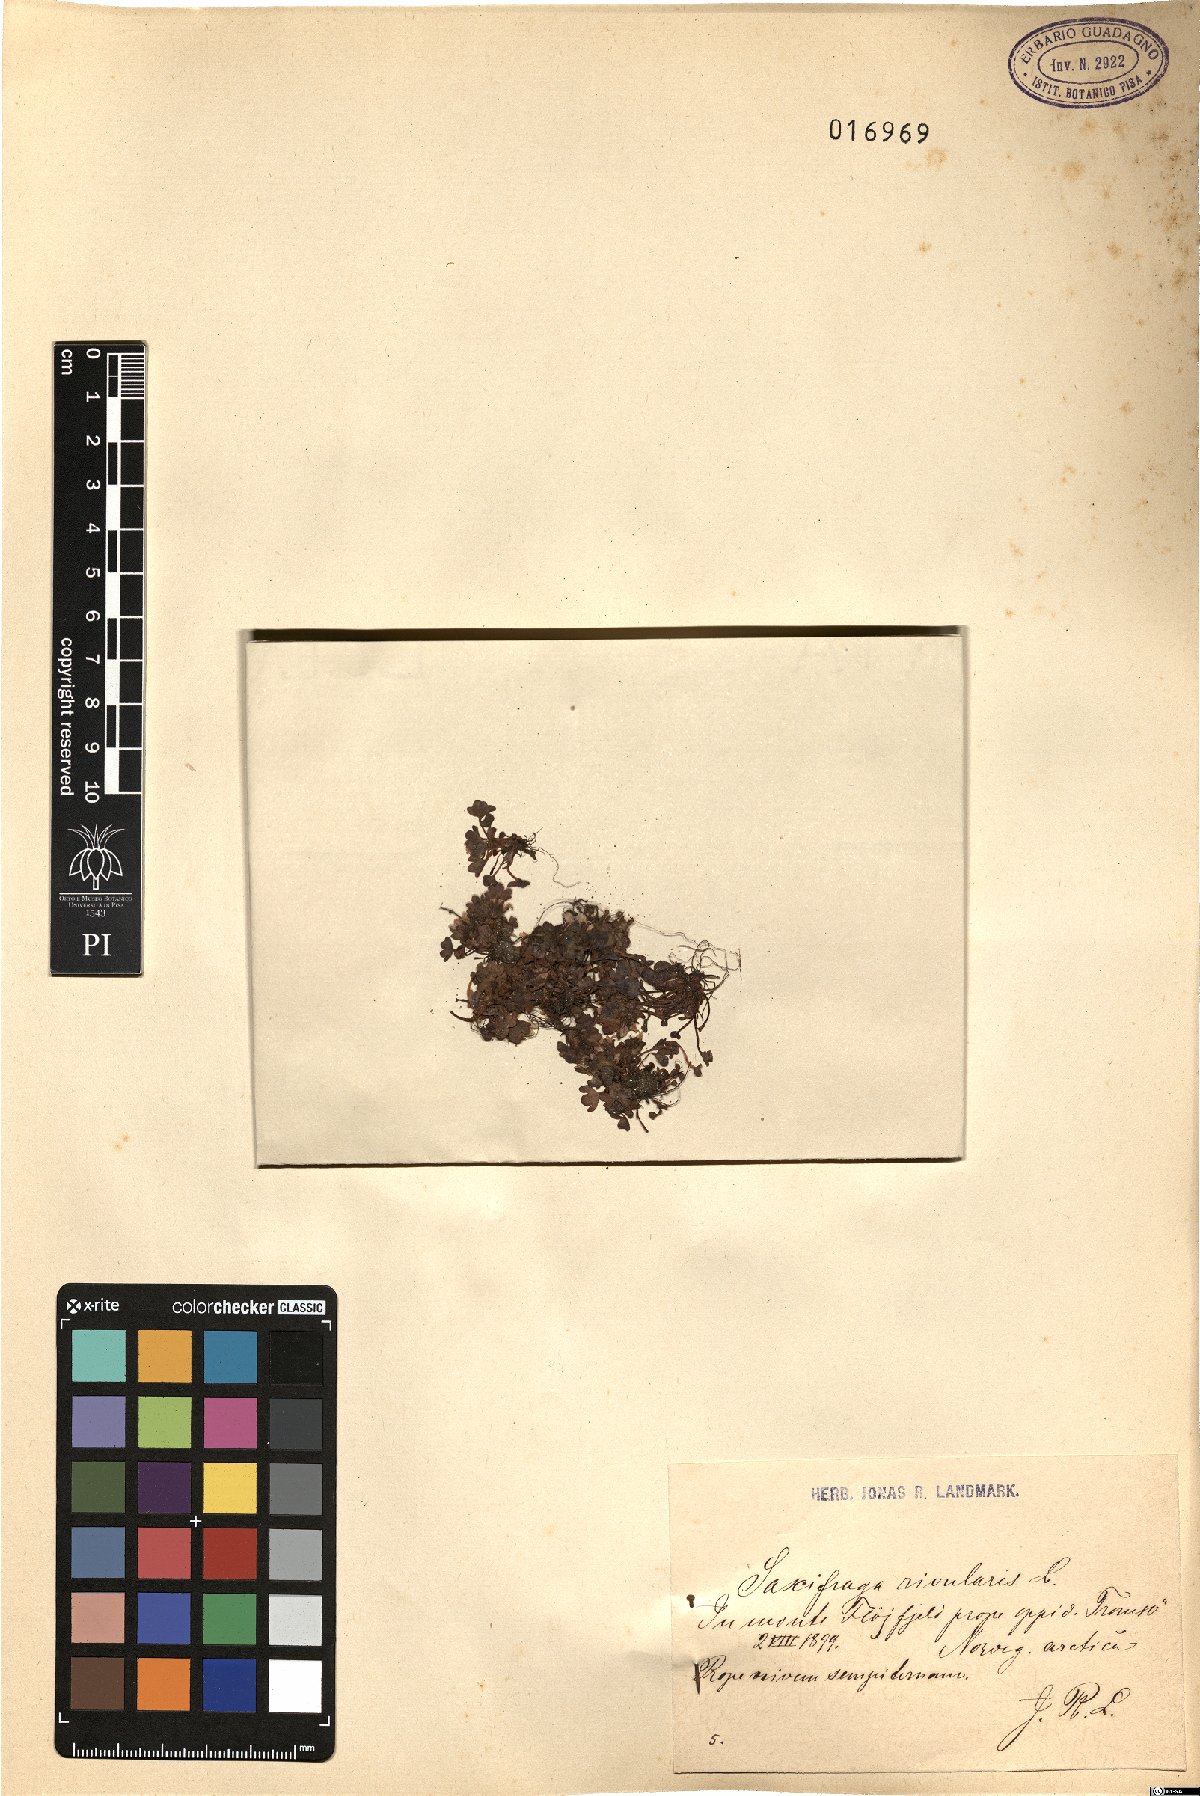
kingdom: Plantae
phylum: Tracheophyta
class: Magnoliopsida
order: Saxifragales
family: Saxifragaceae
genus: Saxifraga
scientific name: Saxifraga rivularis
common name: Highland saxifrage
